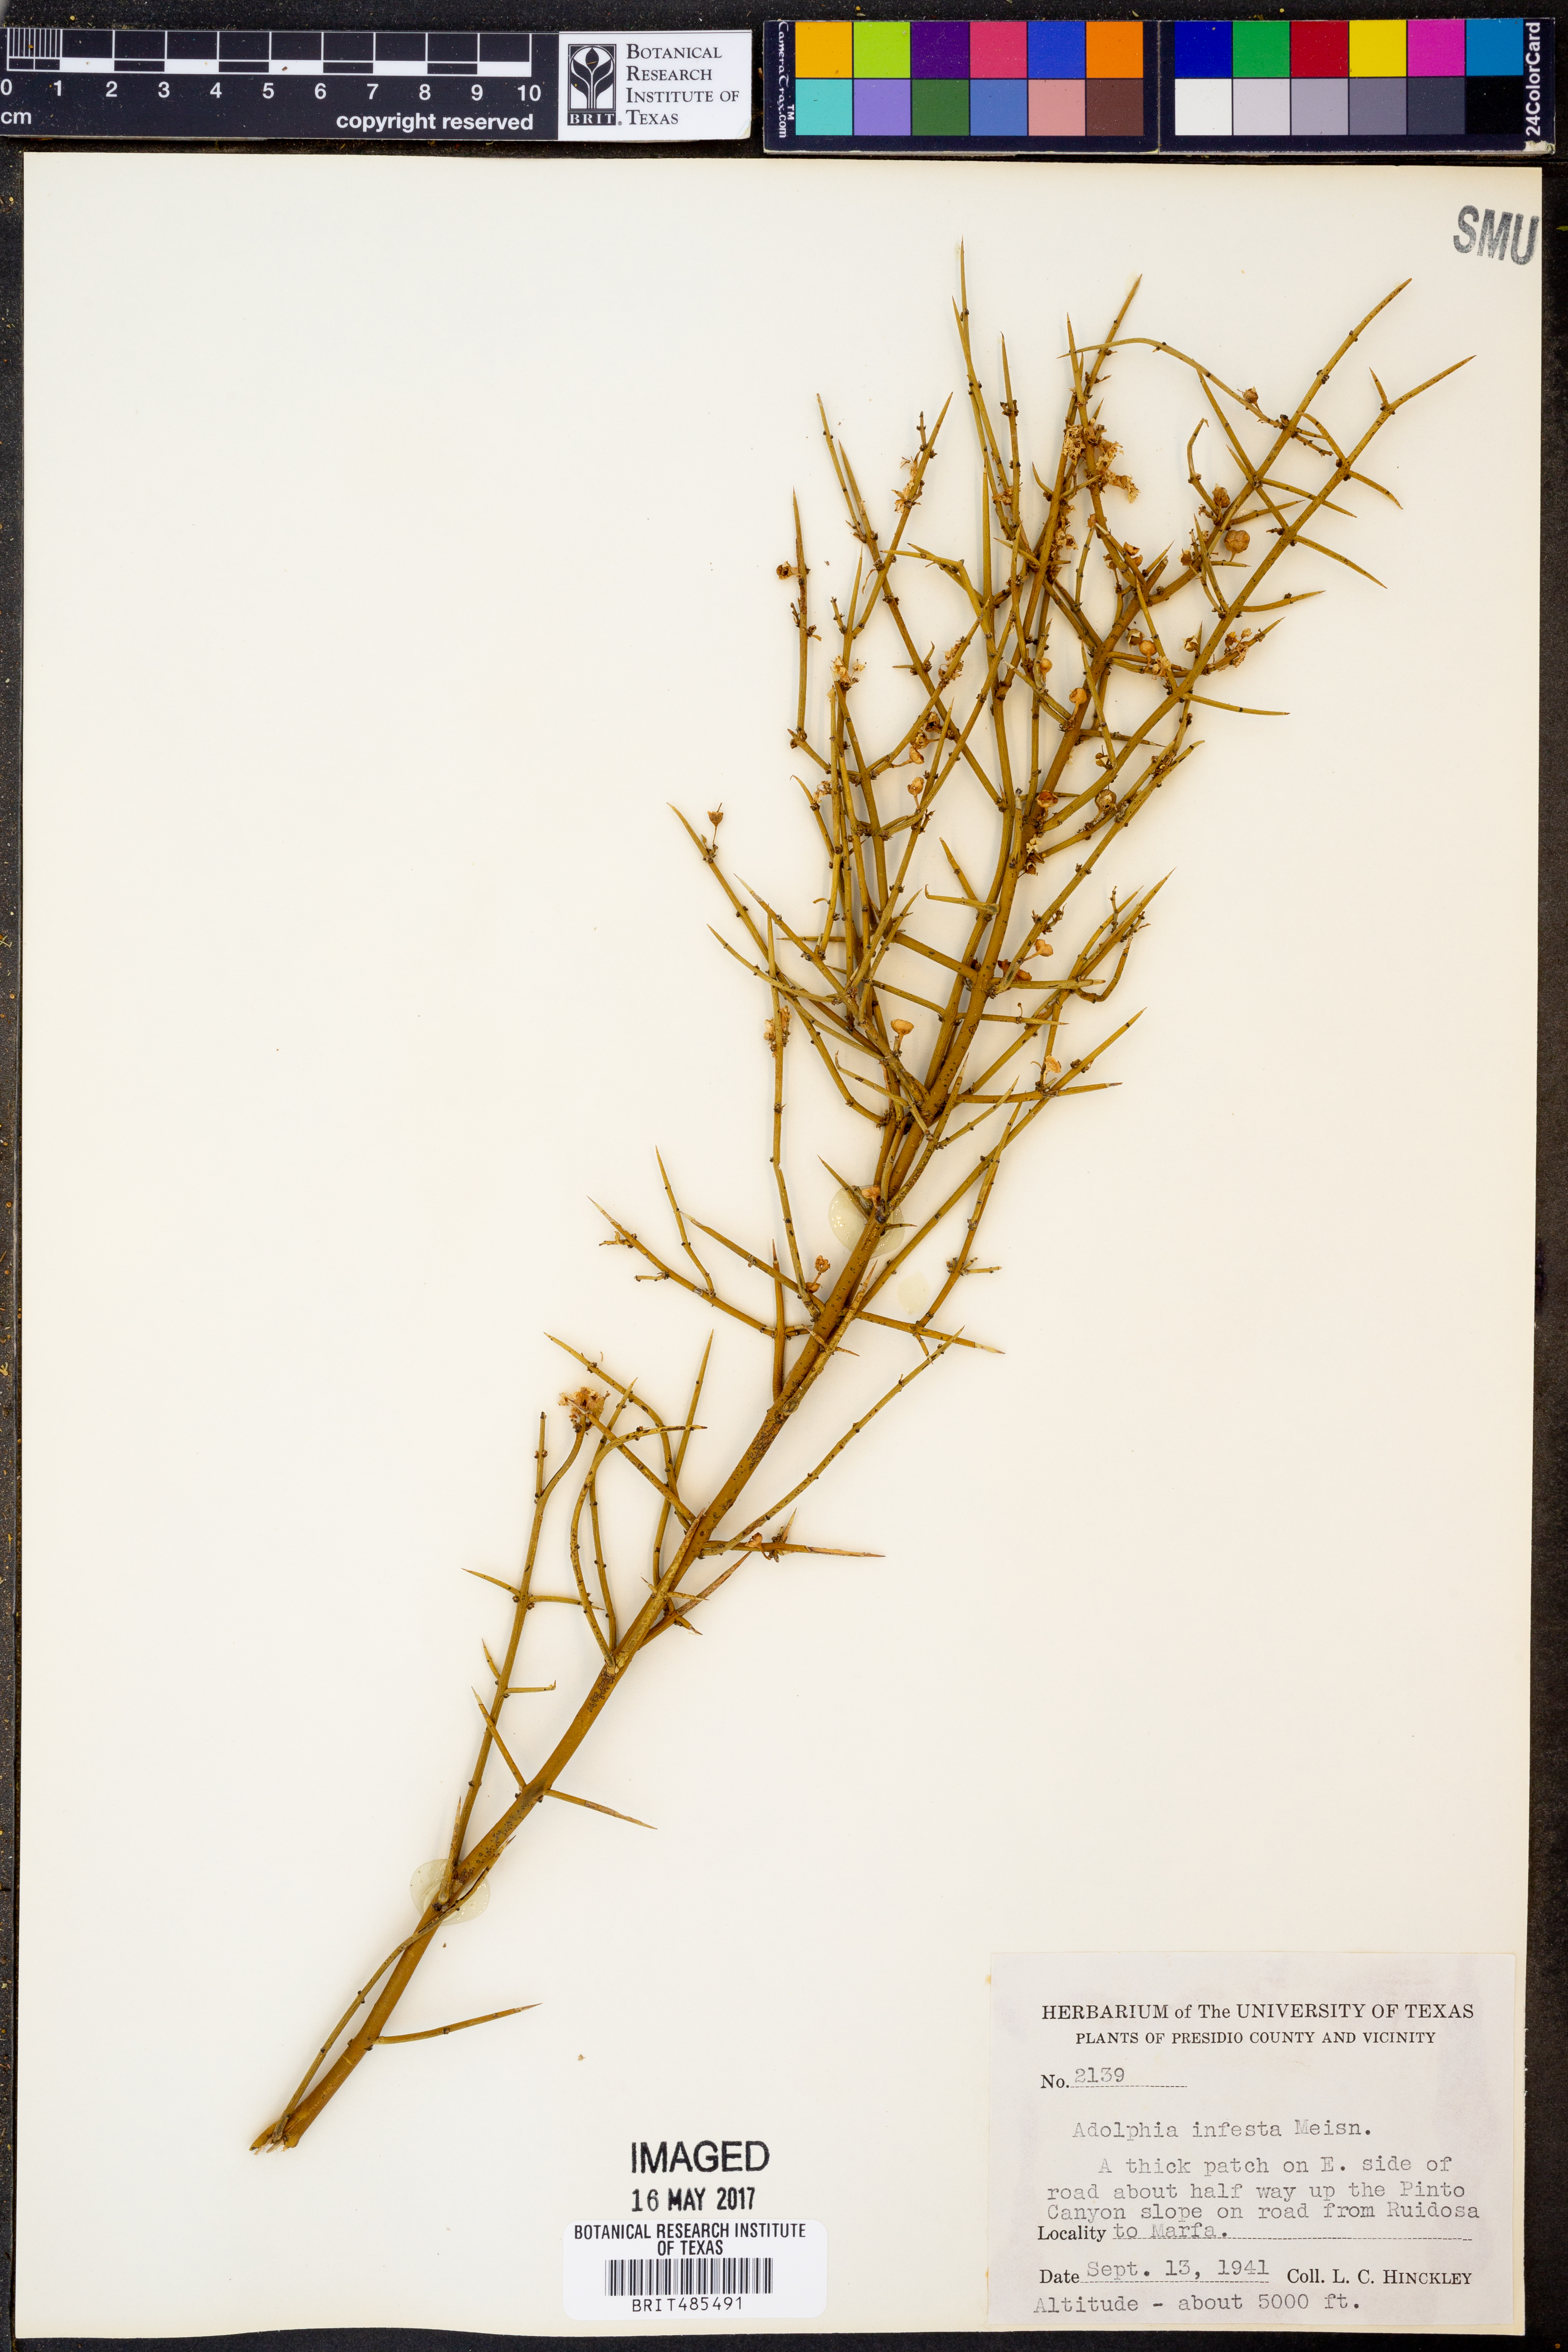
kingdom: Plantae
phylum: Tracheophyta
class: Magnoliopsida
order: Rosales
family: Rhamnaceae
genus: Adolphia
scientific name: Adolphia infesta
